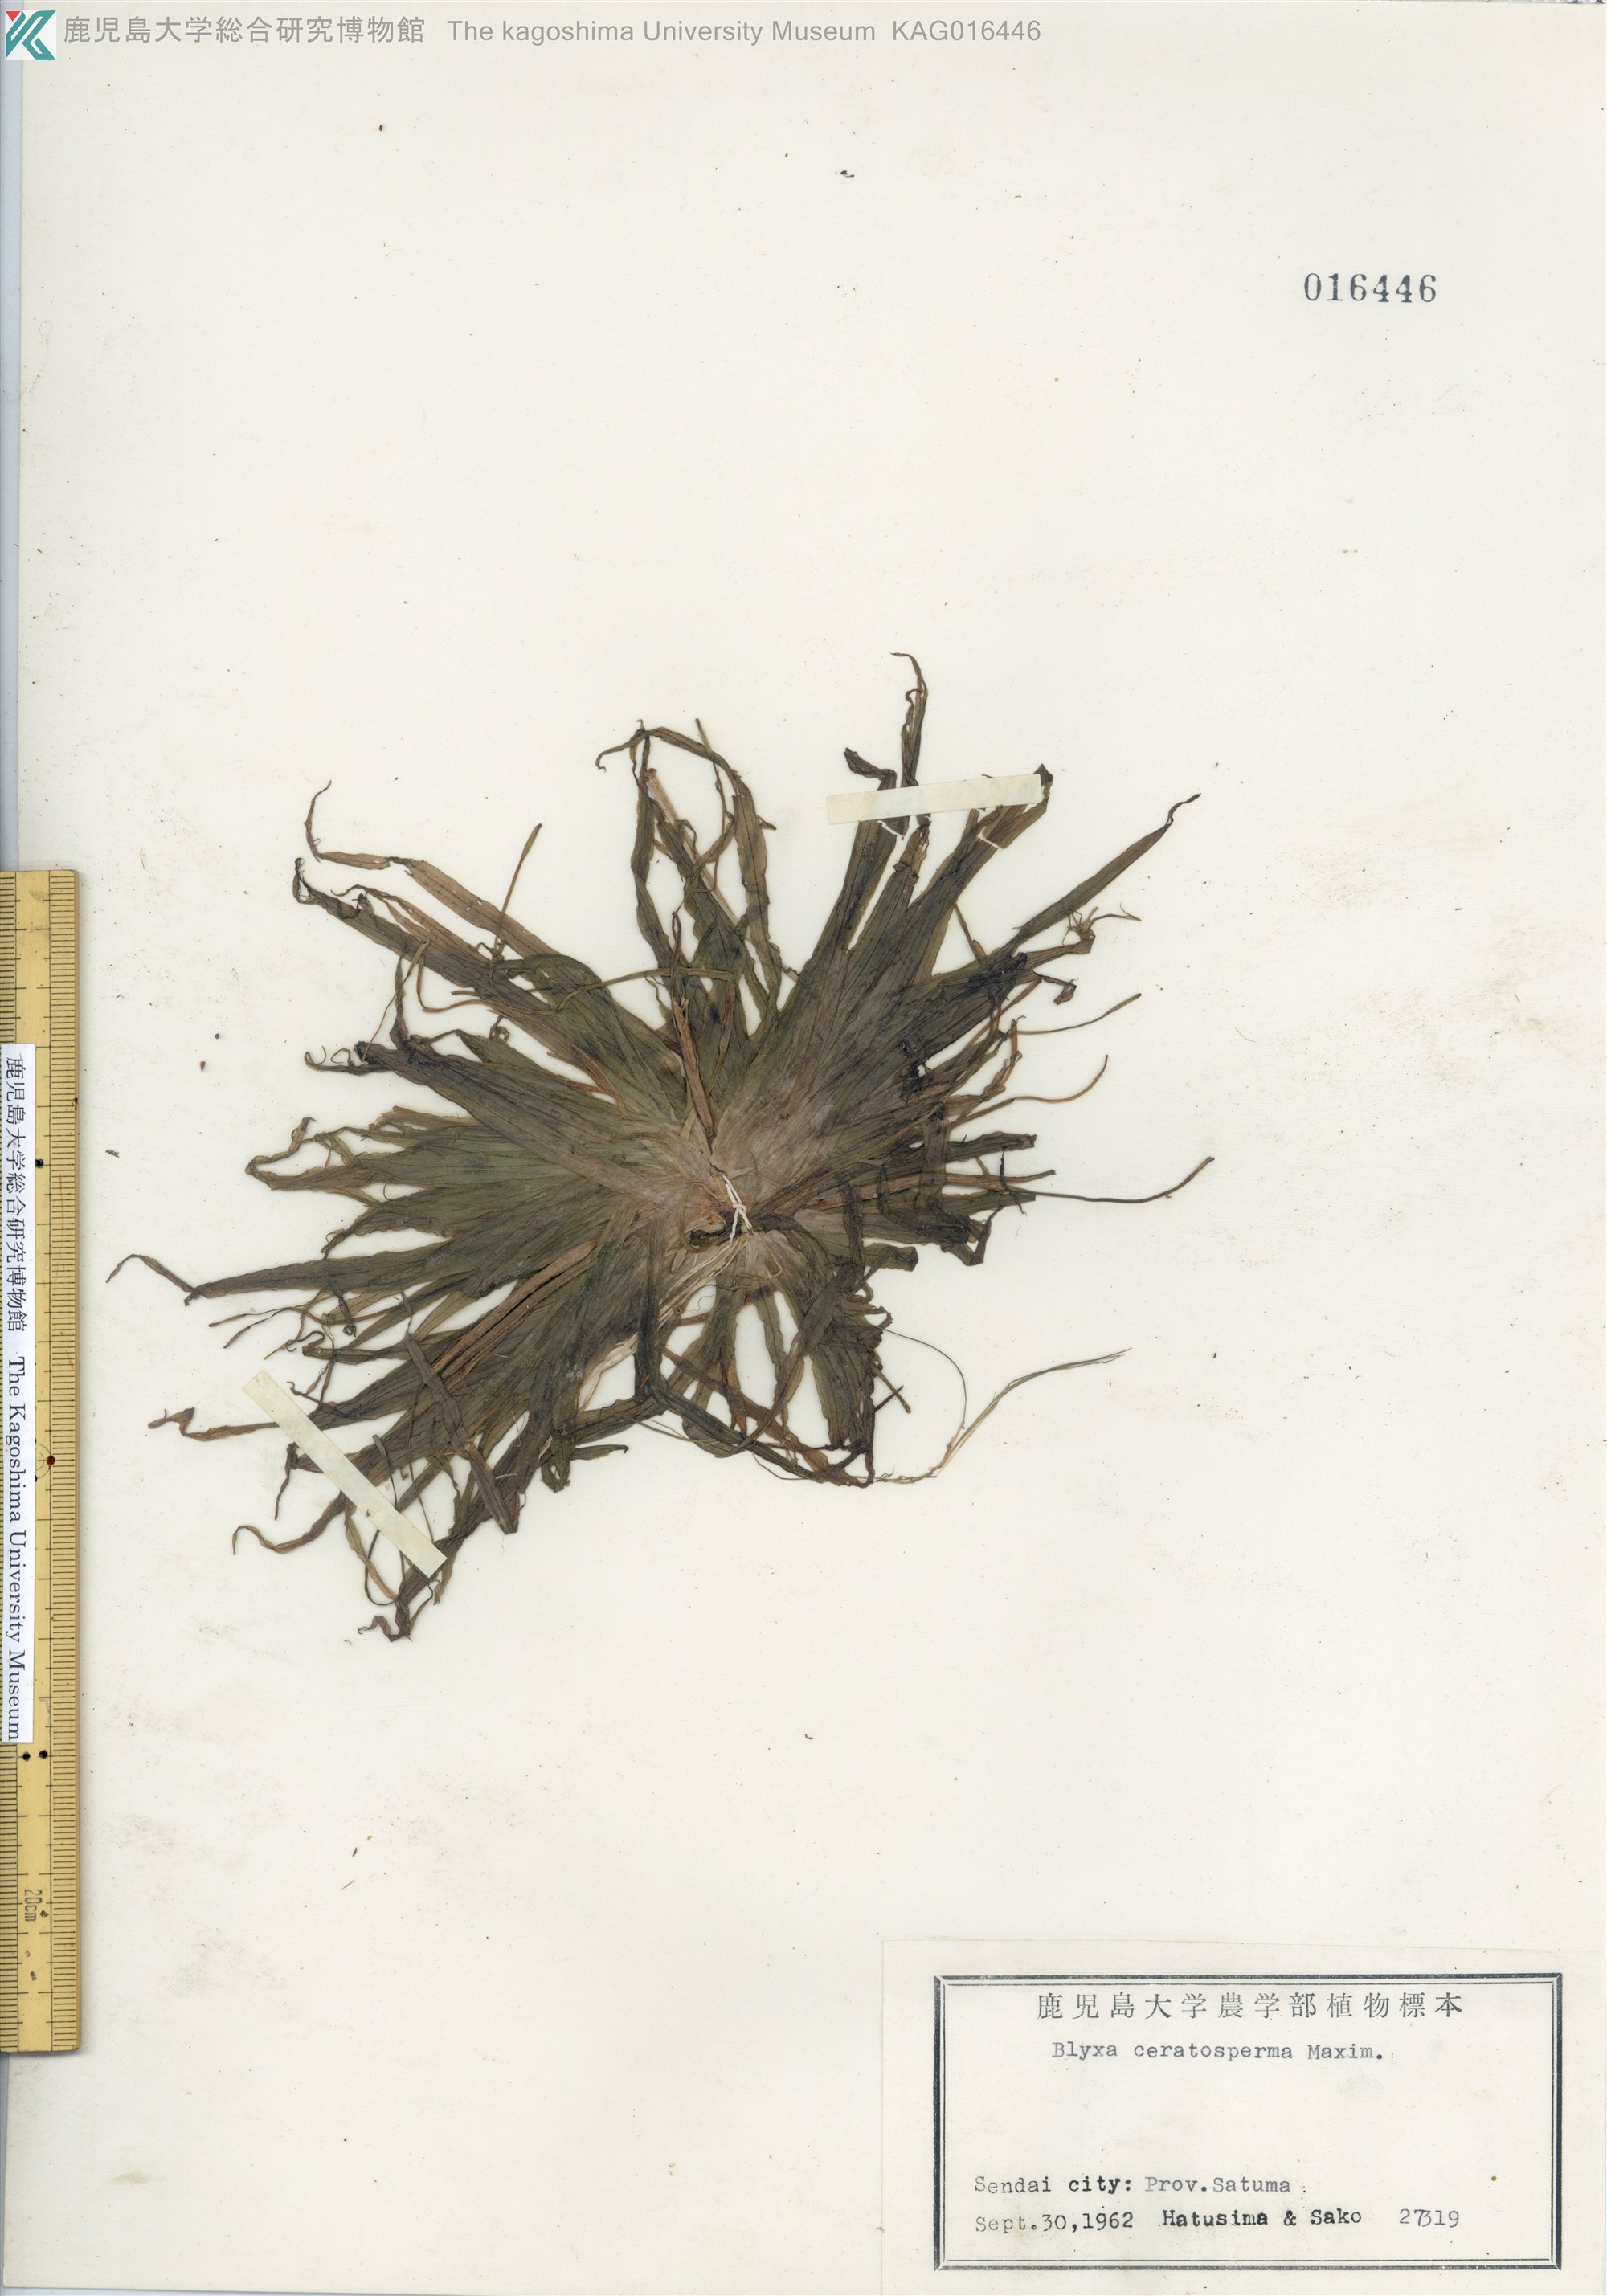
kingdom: Plantae
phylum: Tracheophyta
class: Liliopsida
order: Alismatales
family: Hydrocharitaceae
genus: Blyxa
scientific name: Blyxa echinosperma
